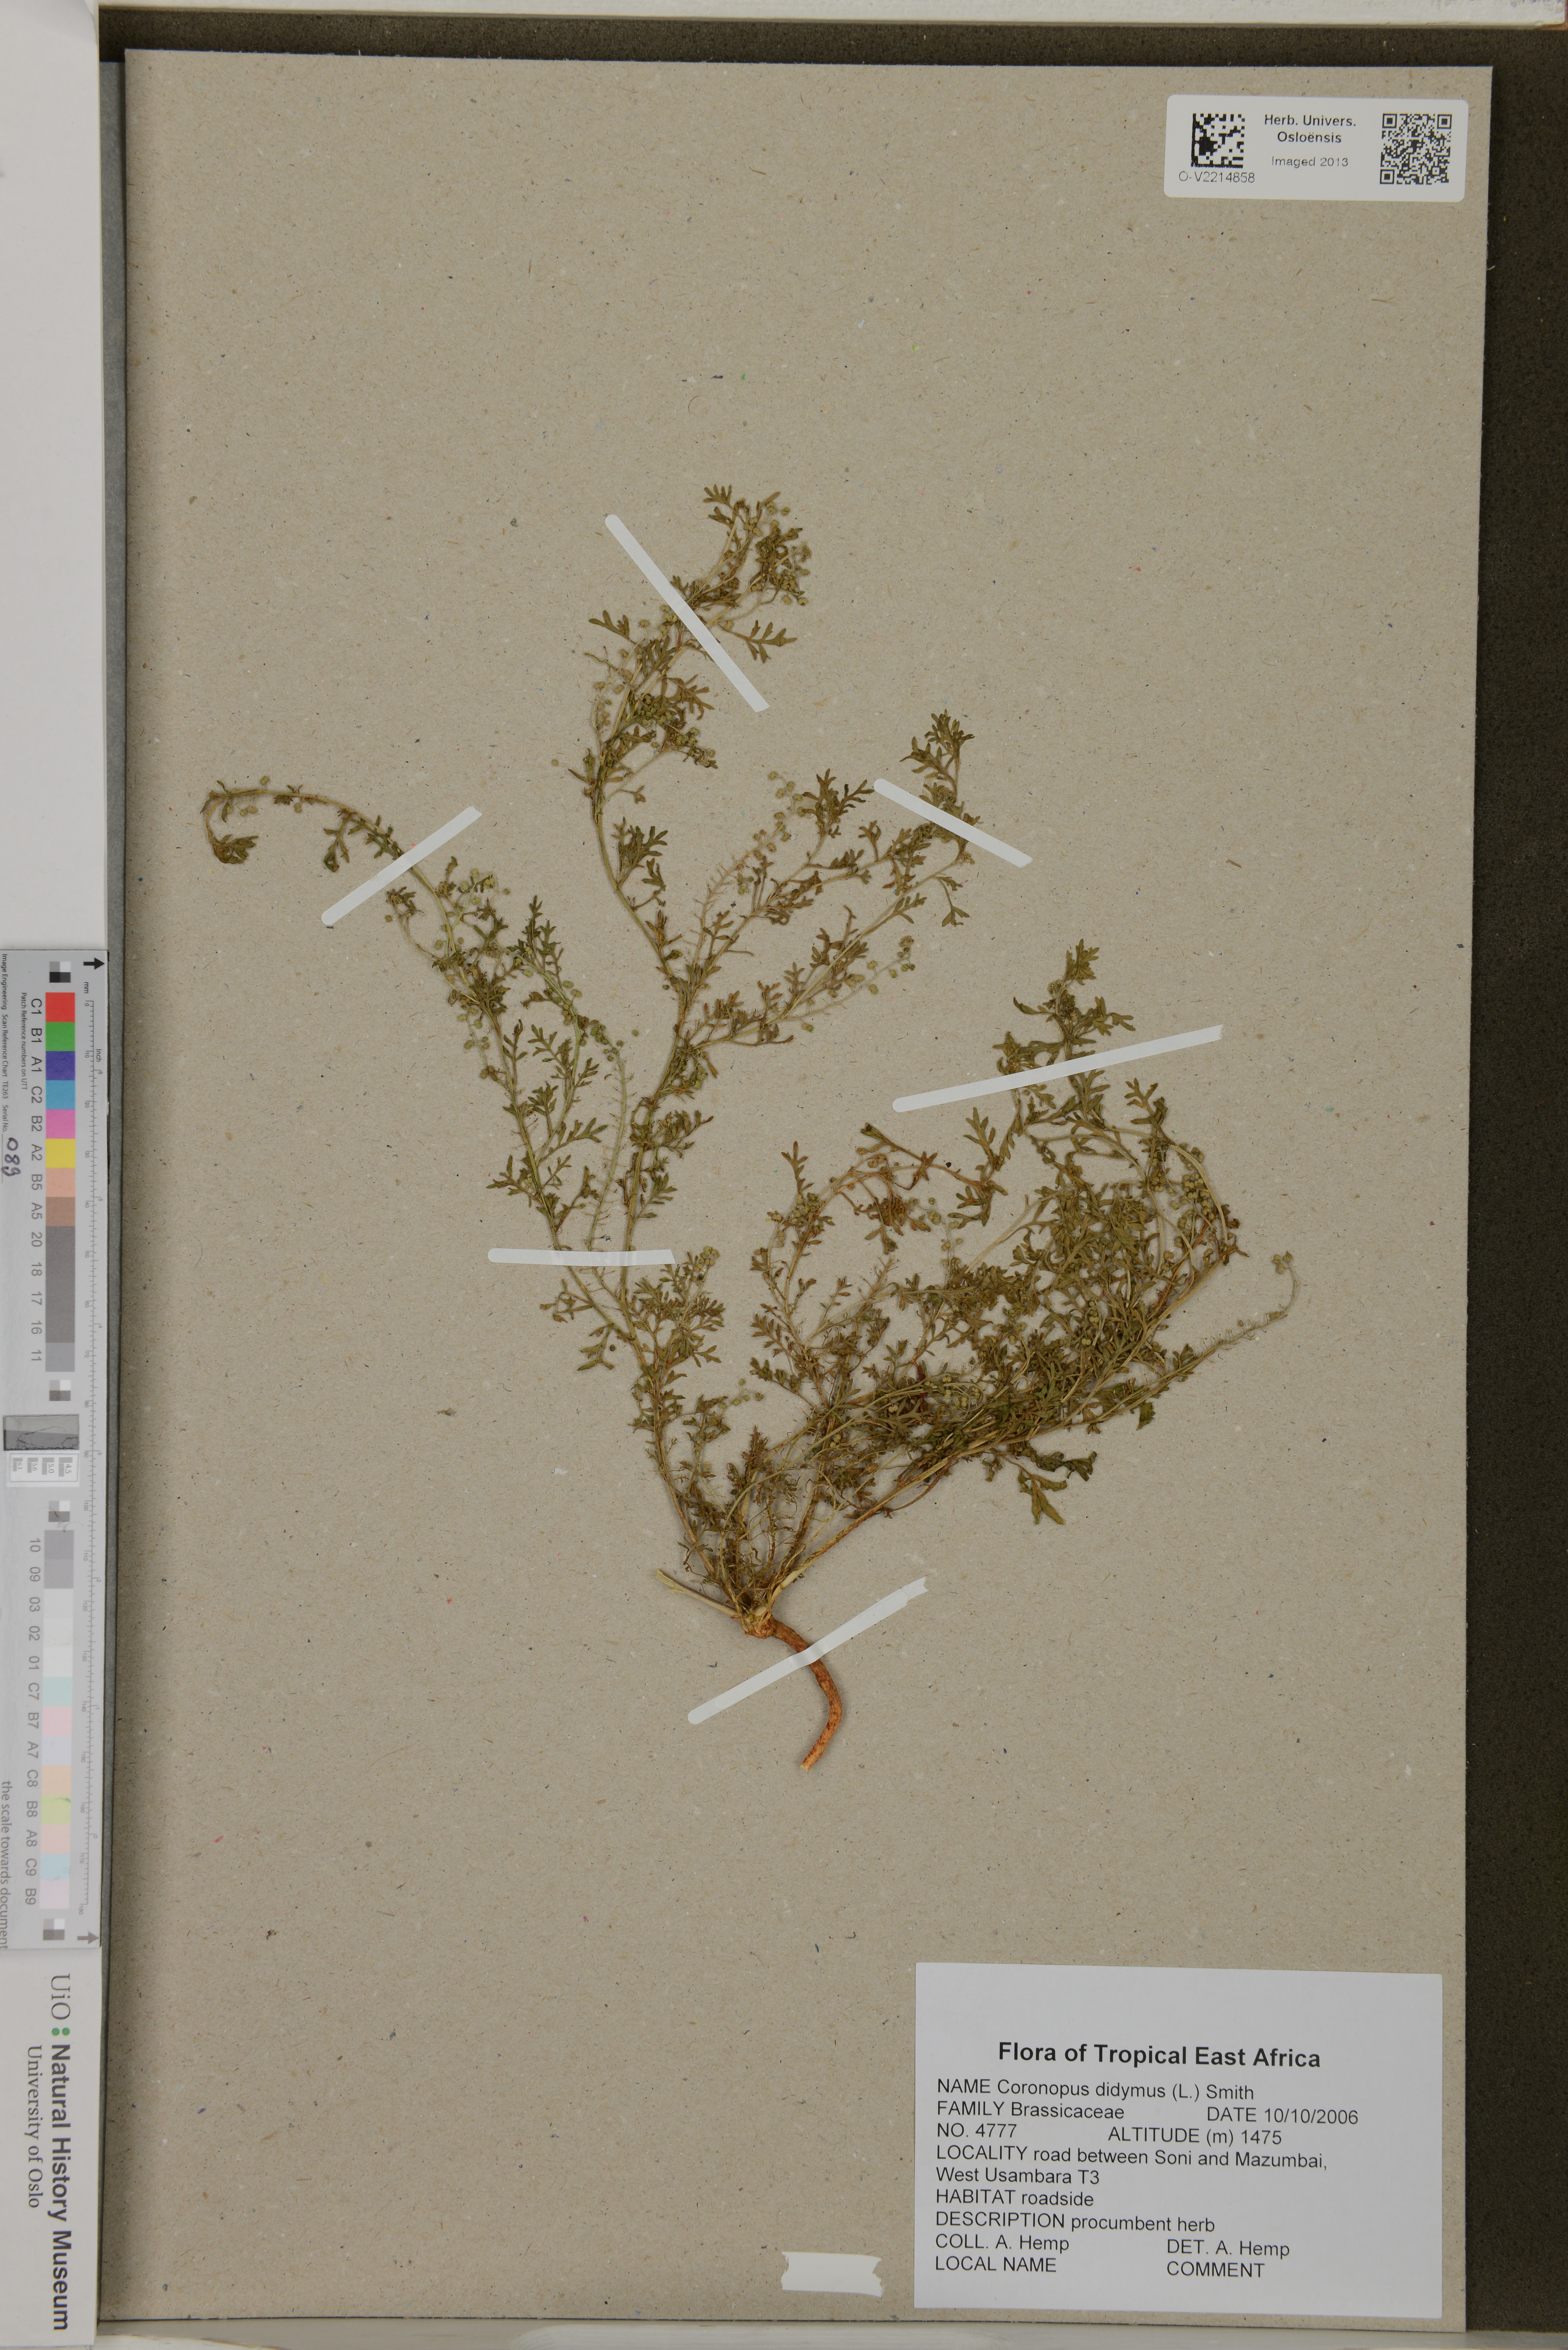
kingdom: Plantae
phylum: Tracheophyta
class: Magnoliopsida
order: Brassicales
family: Brassicaceae
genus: Lepidium
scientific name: Lepidium didymum
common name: Lesser swinecress
